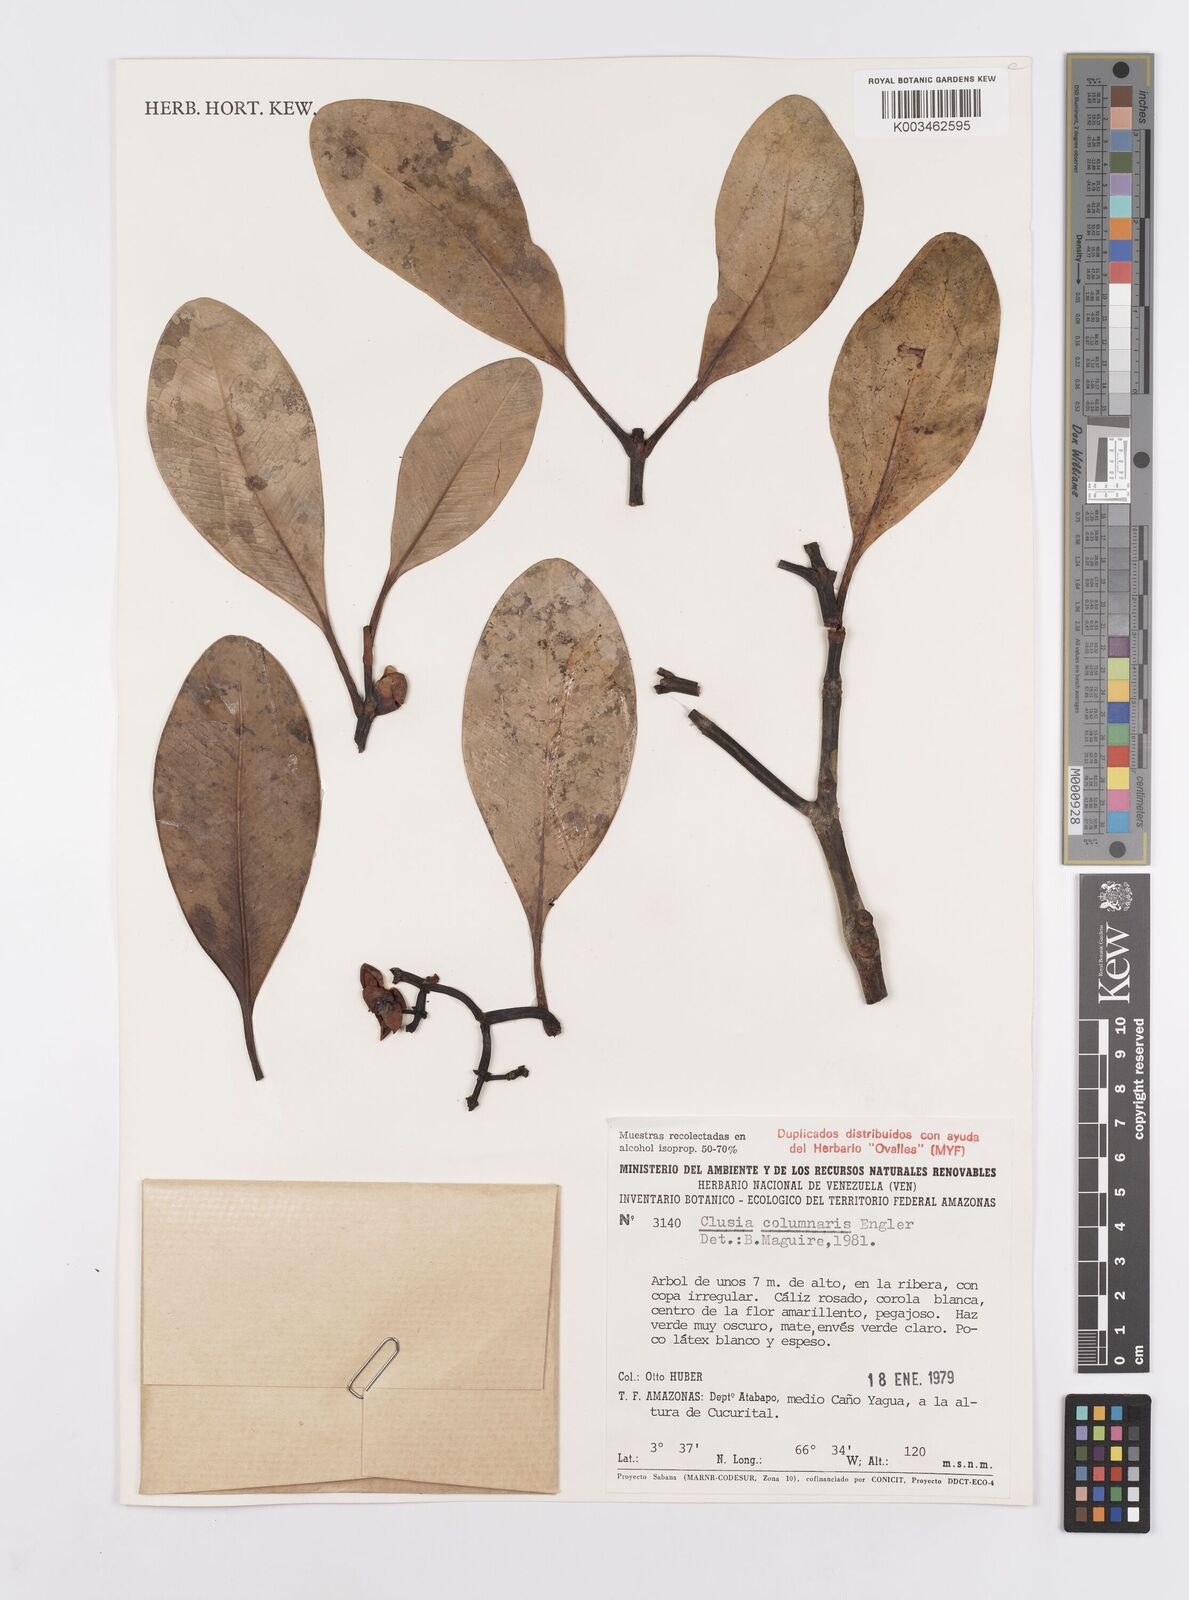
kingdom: Plantae
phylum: Tracheophyta
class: Magnoliopsida
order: Malpighiales
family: Clusiaceae
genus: Clusia
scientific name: Clusia columnaris
